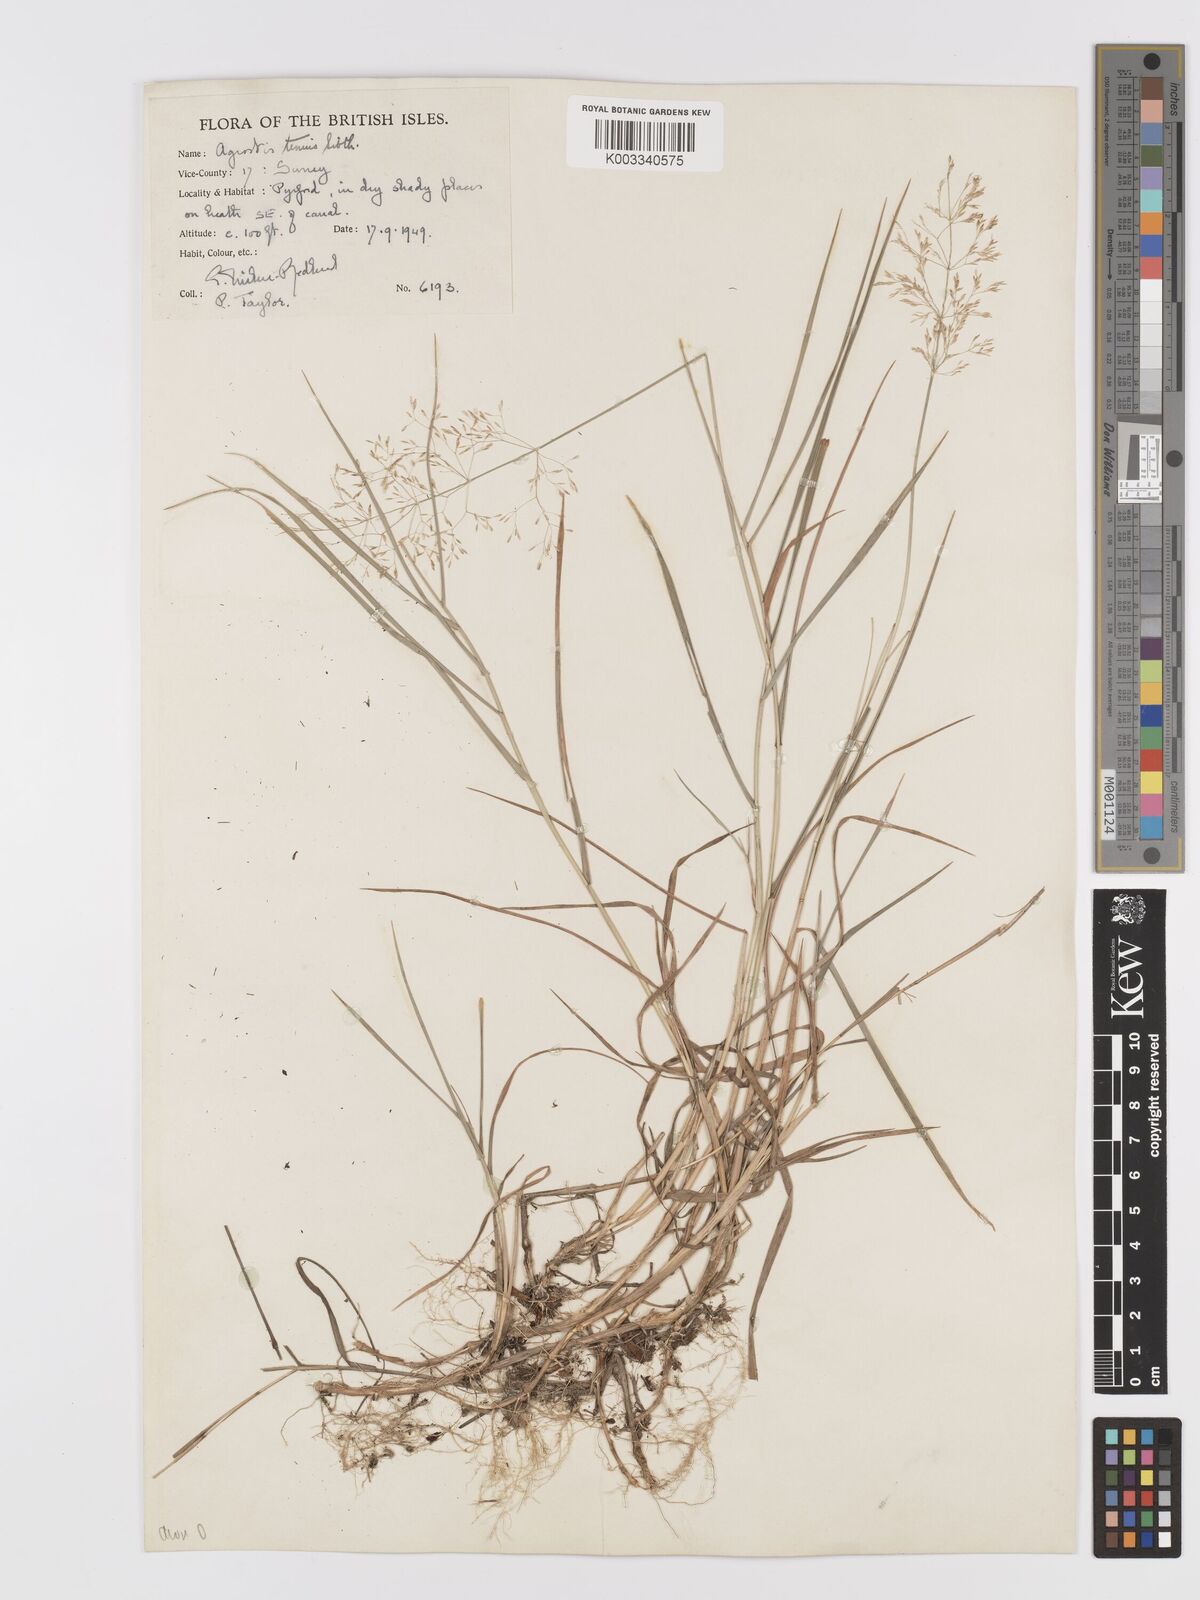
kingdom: Plantae
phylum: Tracheophyta
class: Liliopsida
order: Poales
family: Poaceae
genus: Agrostis
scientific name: Agrostis capillaris
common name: Colonial bentgrass
